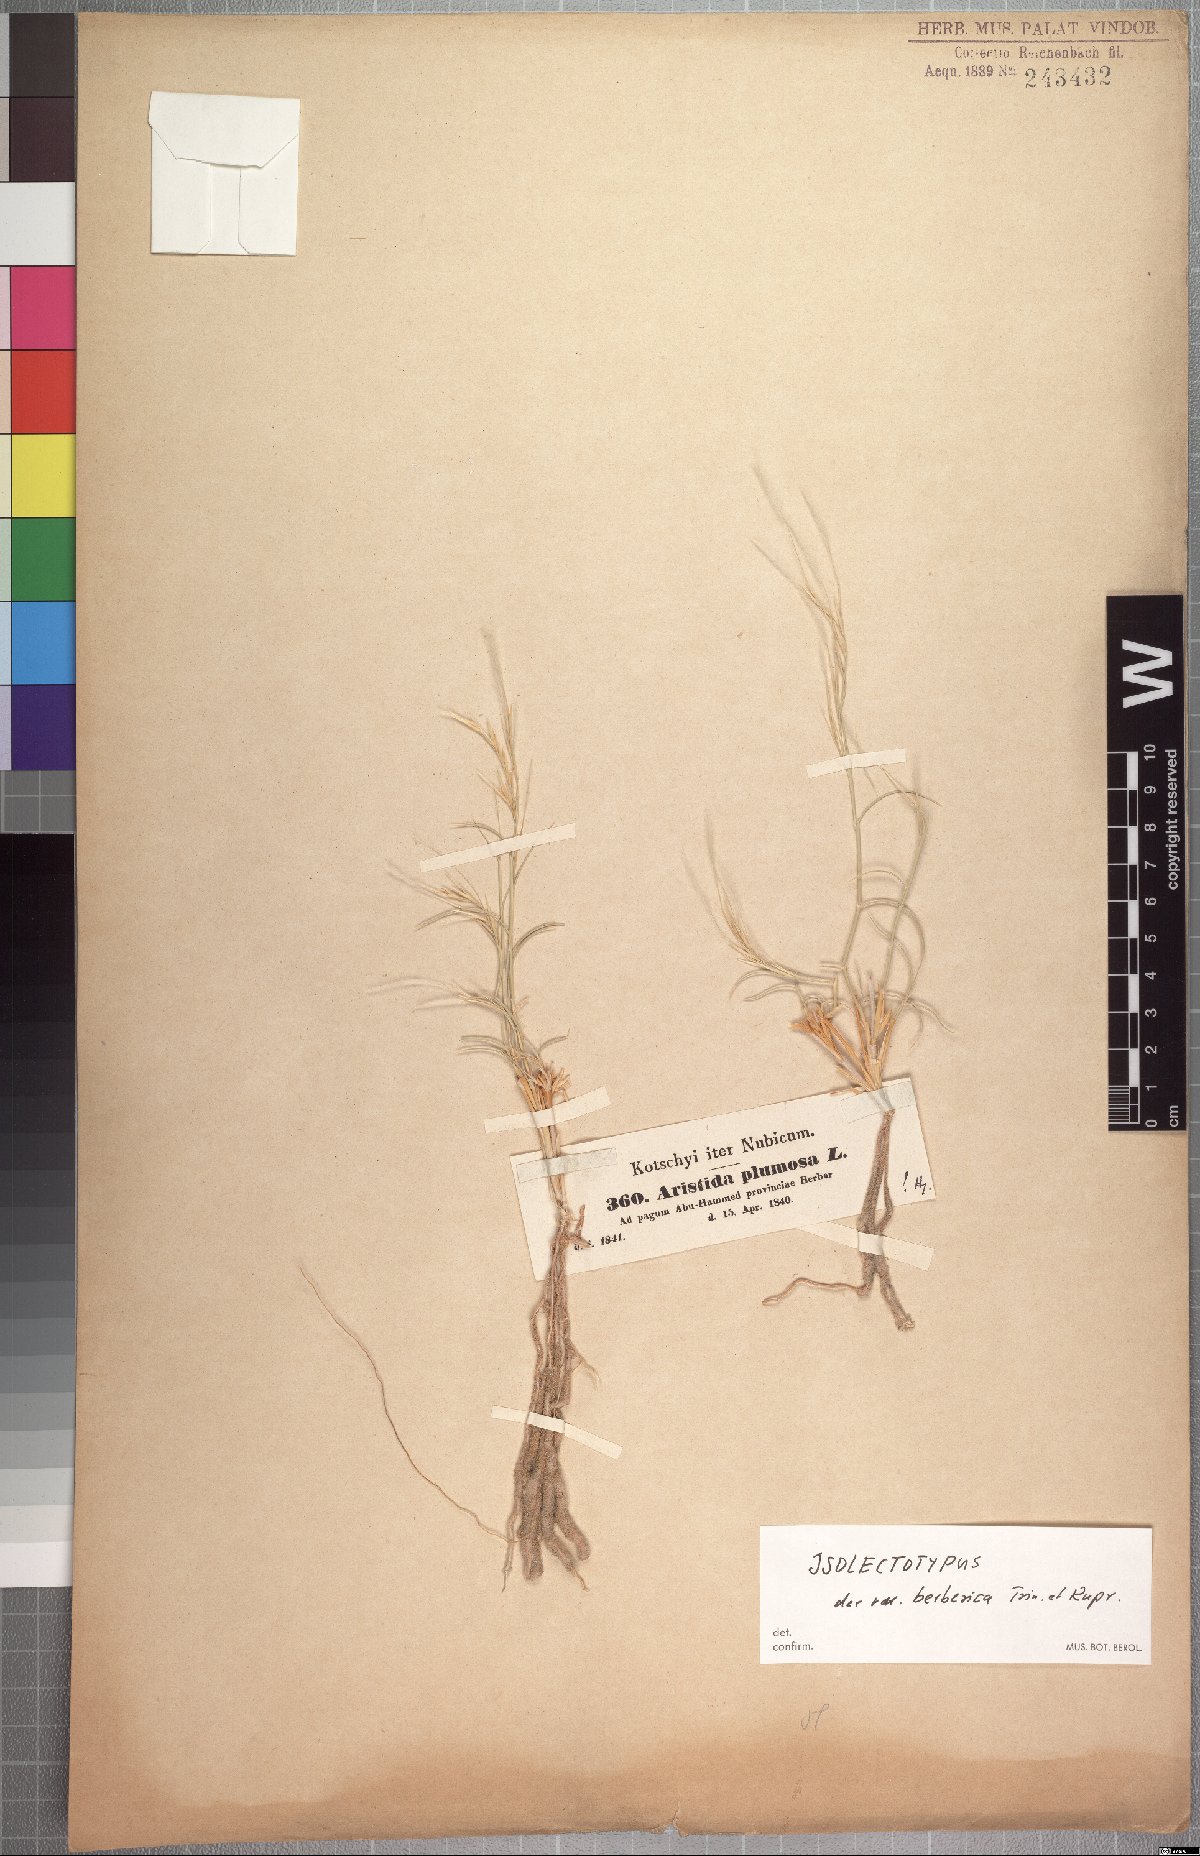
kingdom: Plantae
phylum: Tracheophyta
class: Liliopsida
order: Poales
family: Poaceae
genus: Stipagrostis
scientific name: Stipagrostis plumosa
